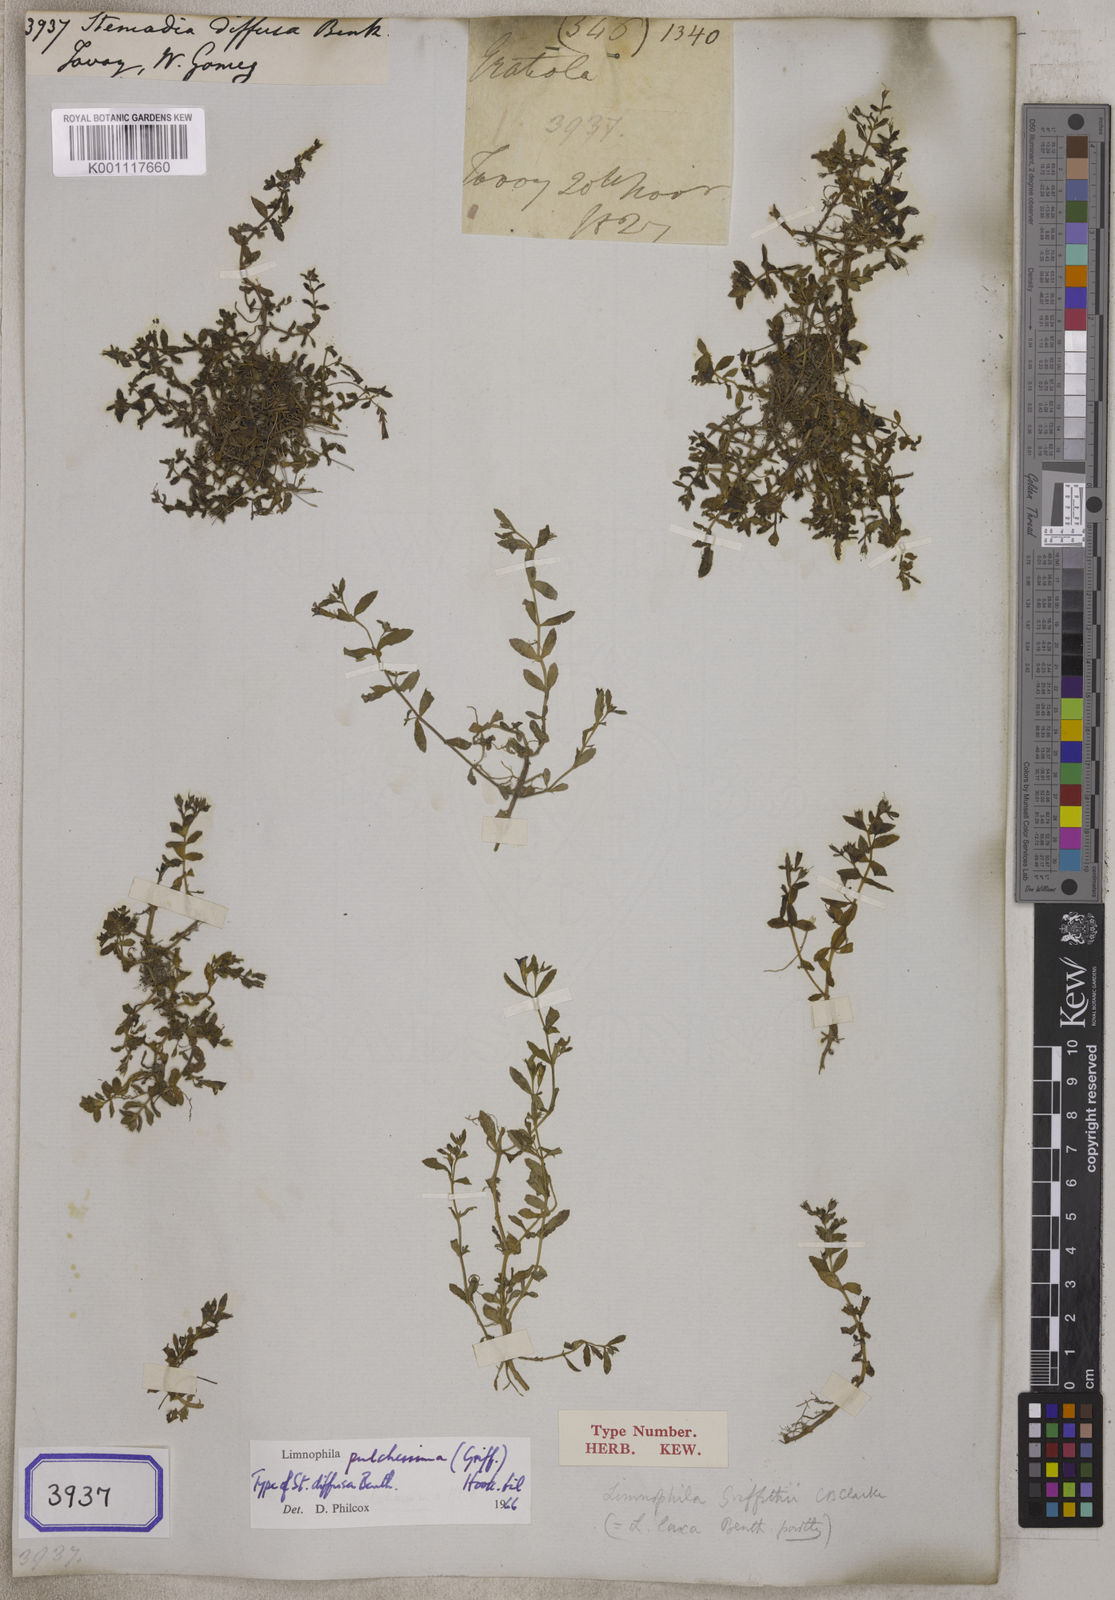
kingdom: Plantae
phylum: Tracheophyta
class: Magnoliopsida
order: Lamiales
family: Plantaginaceae
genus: Stemodia
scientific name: Stemodia
